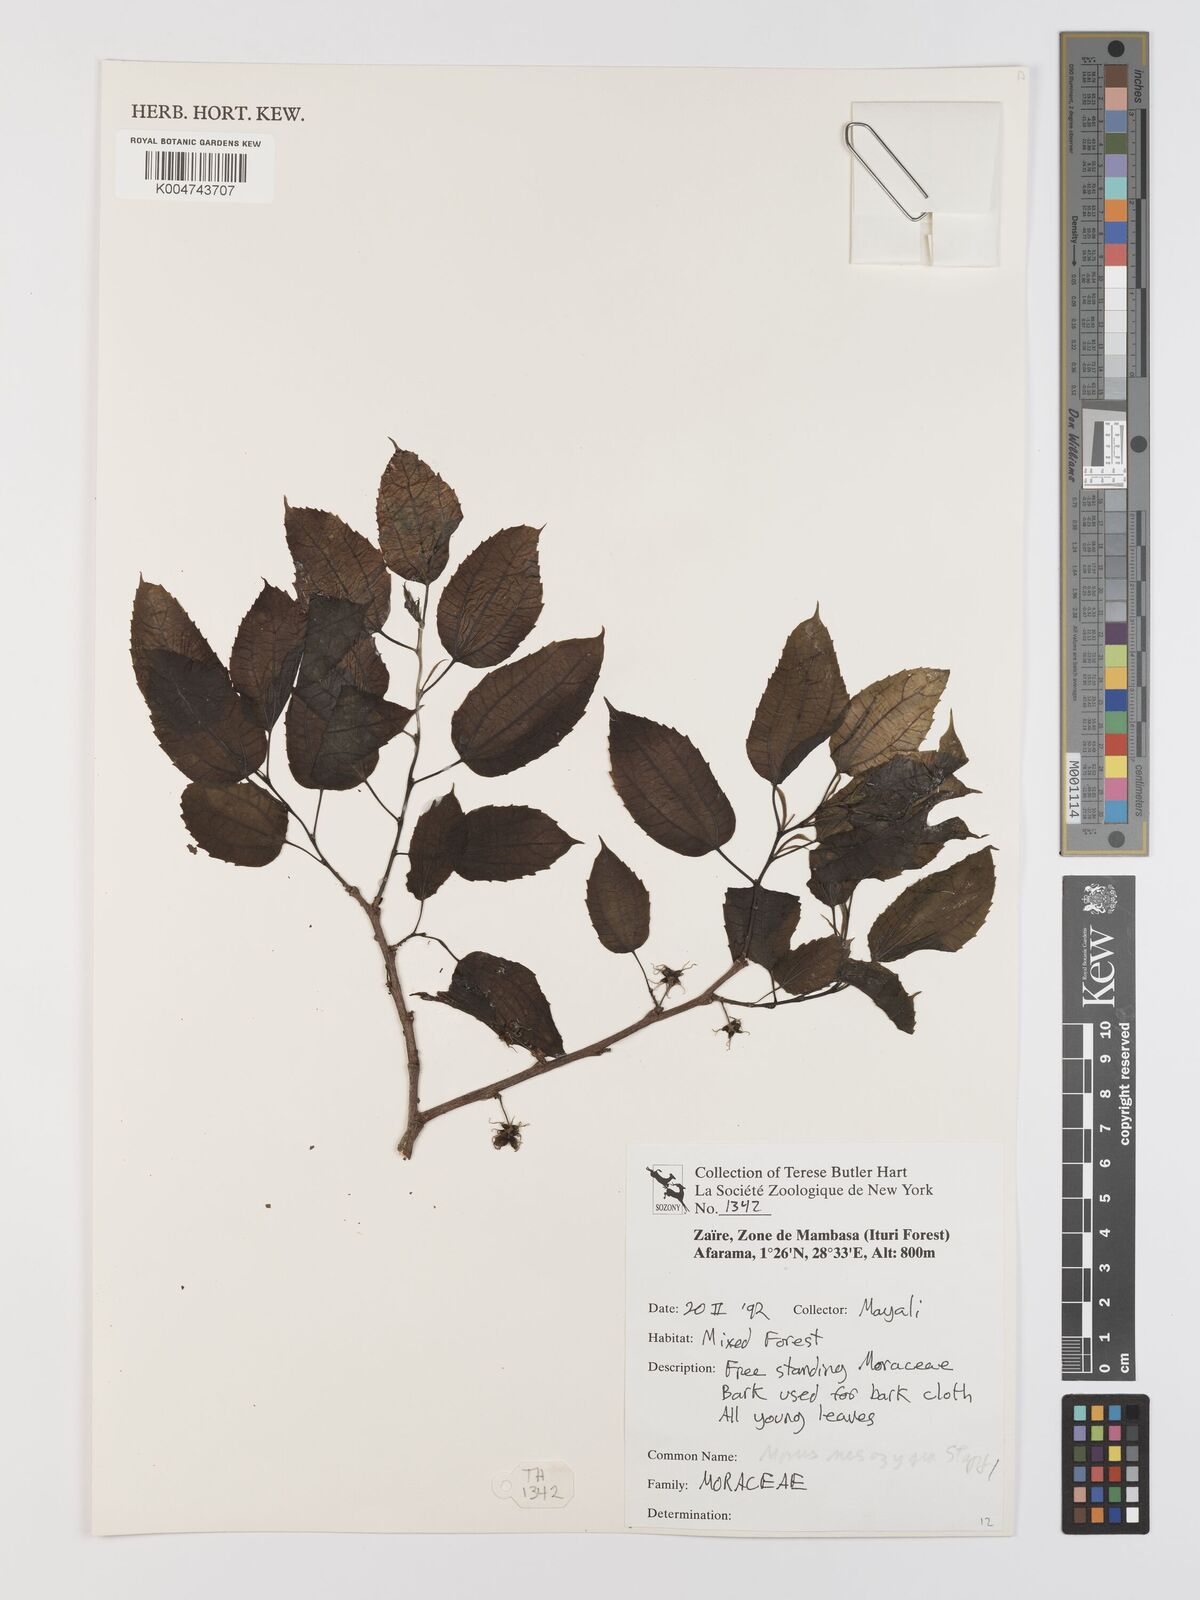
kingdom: Plantae
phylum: Tracheophyta
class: Magnoliopsida
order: Rosales
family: Moraceae
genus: Afromorus
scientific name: Afromorus mesozygia
